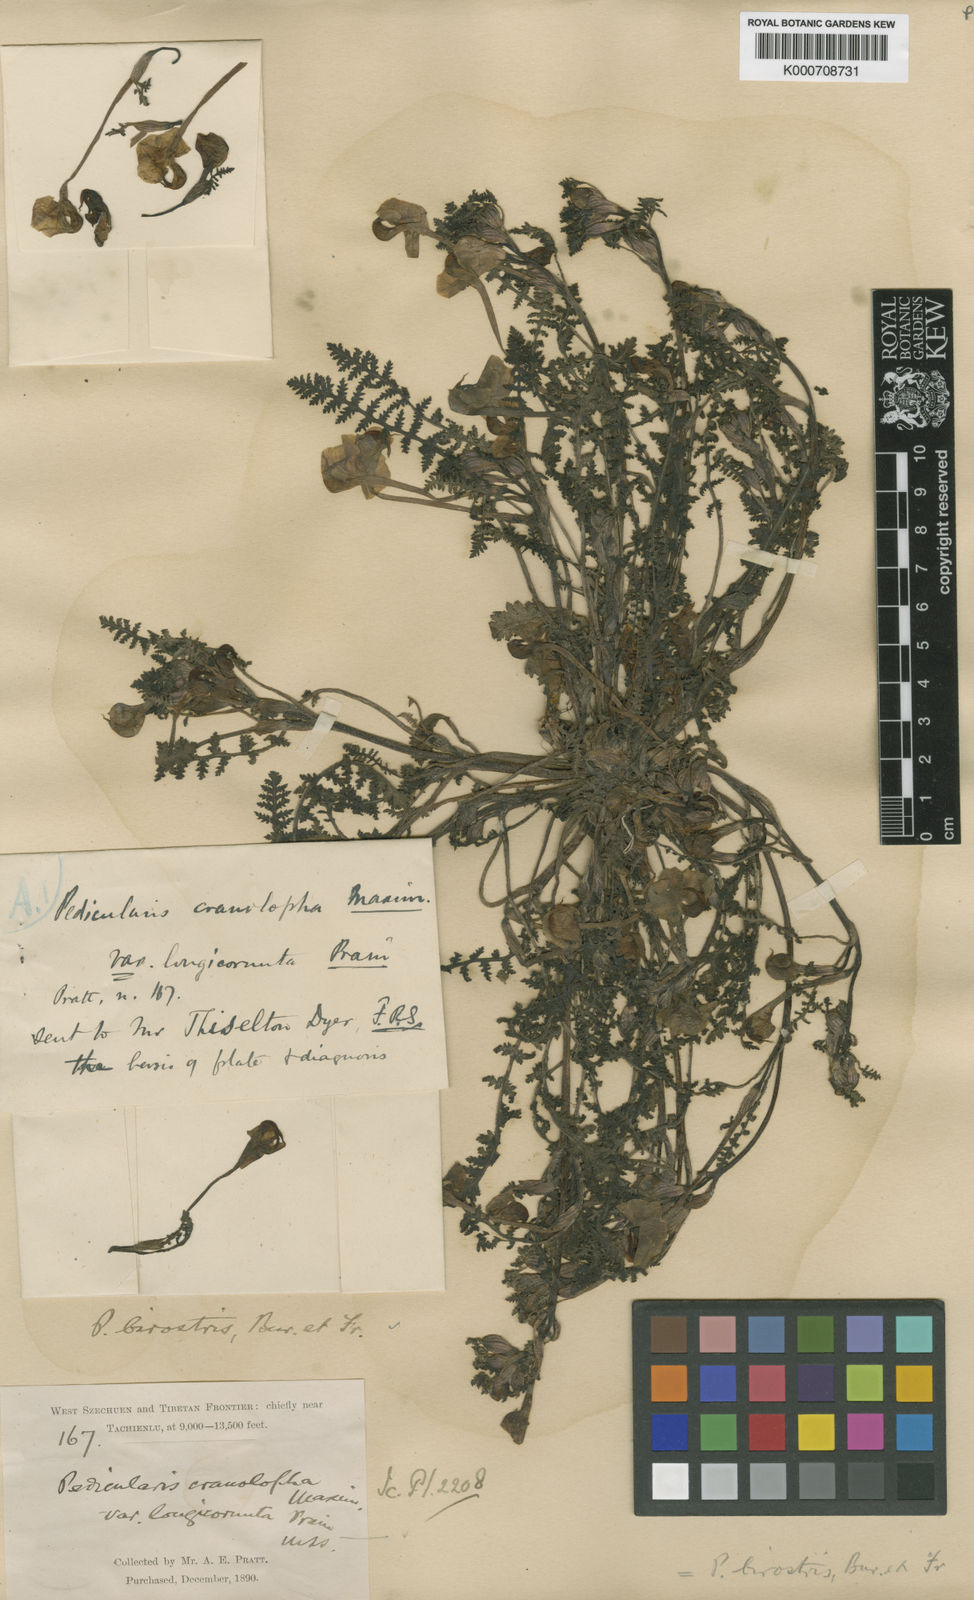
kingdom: Plantae
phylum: Tracheophyta
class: Magnoliopsida
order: Lamiales
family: Orobanchaceae
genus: Pedicularis
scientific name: Pedicularis
